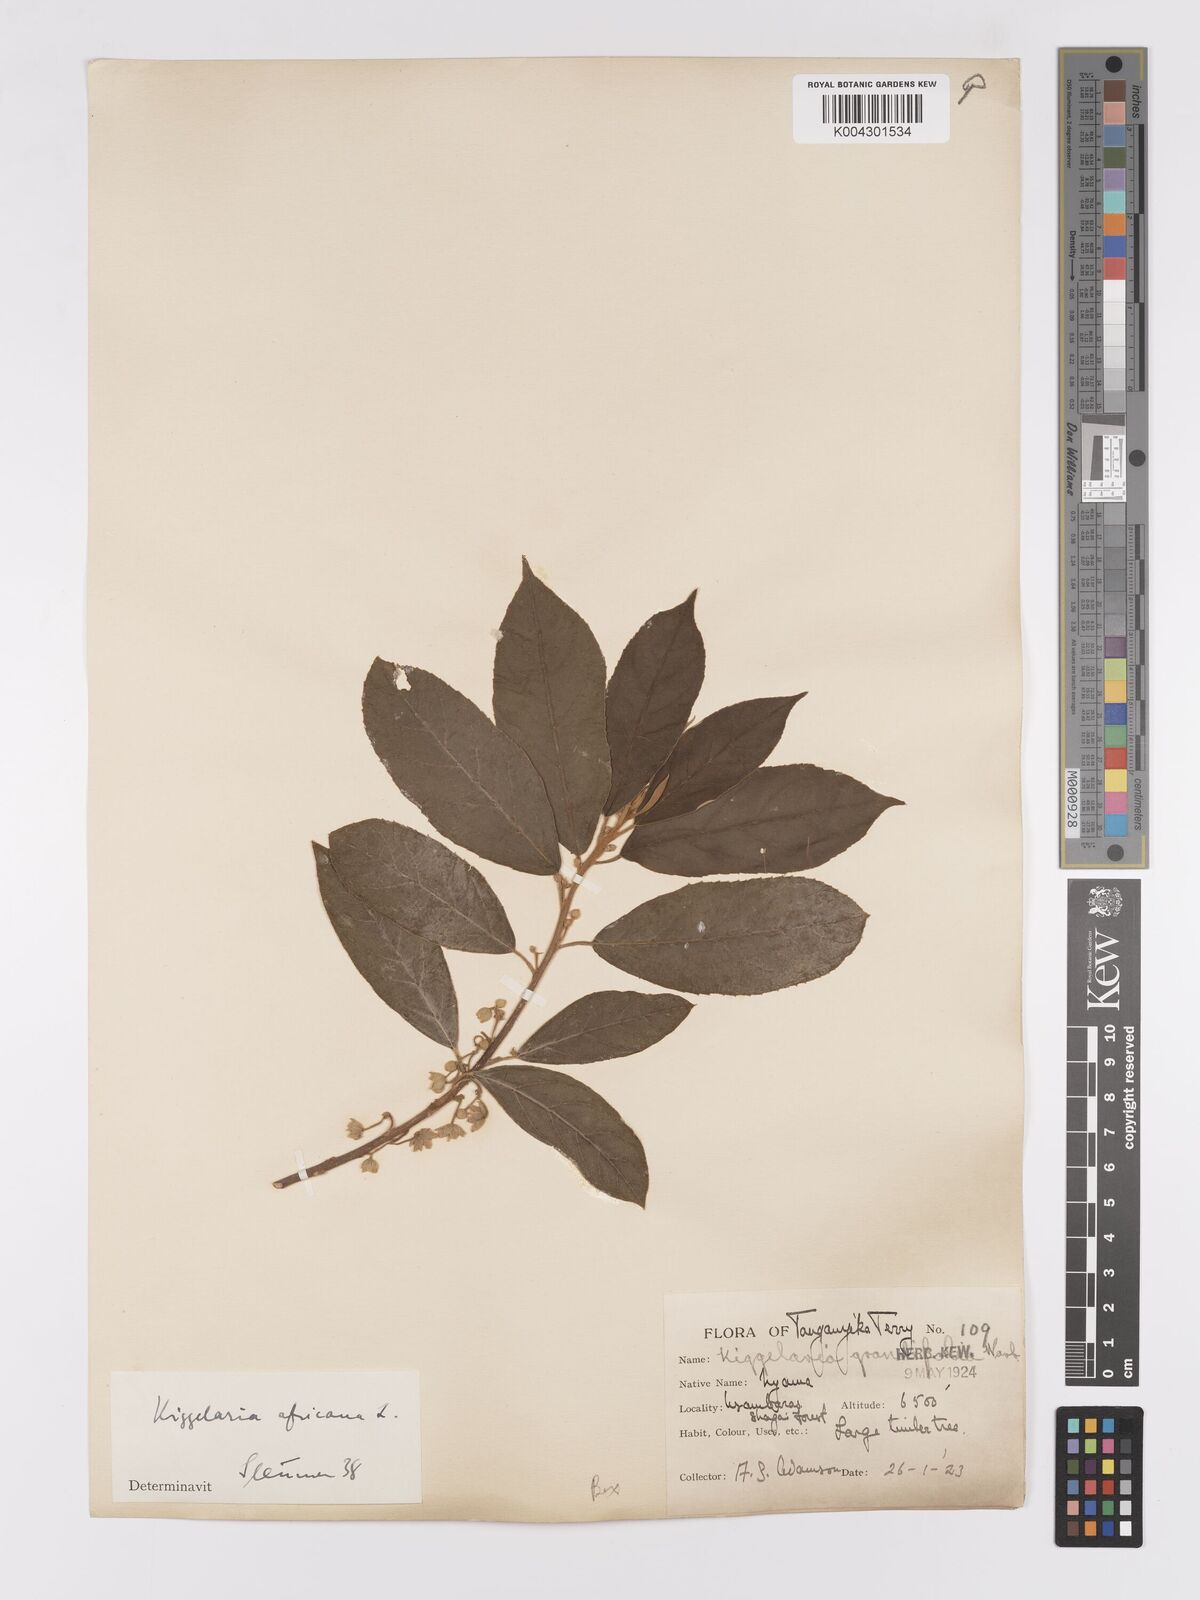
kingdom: Plantae
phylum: Tracheophyta
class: Magnoliopsida
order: Malpighiales
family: Achariaceae
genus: Kiggelaria
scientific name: Kiggelaria africana
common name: Wild peach
